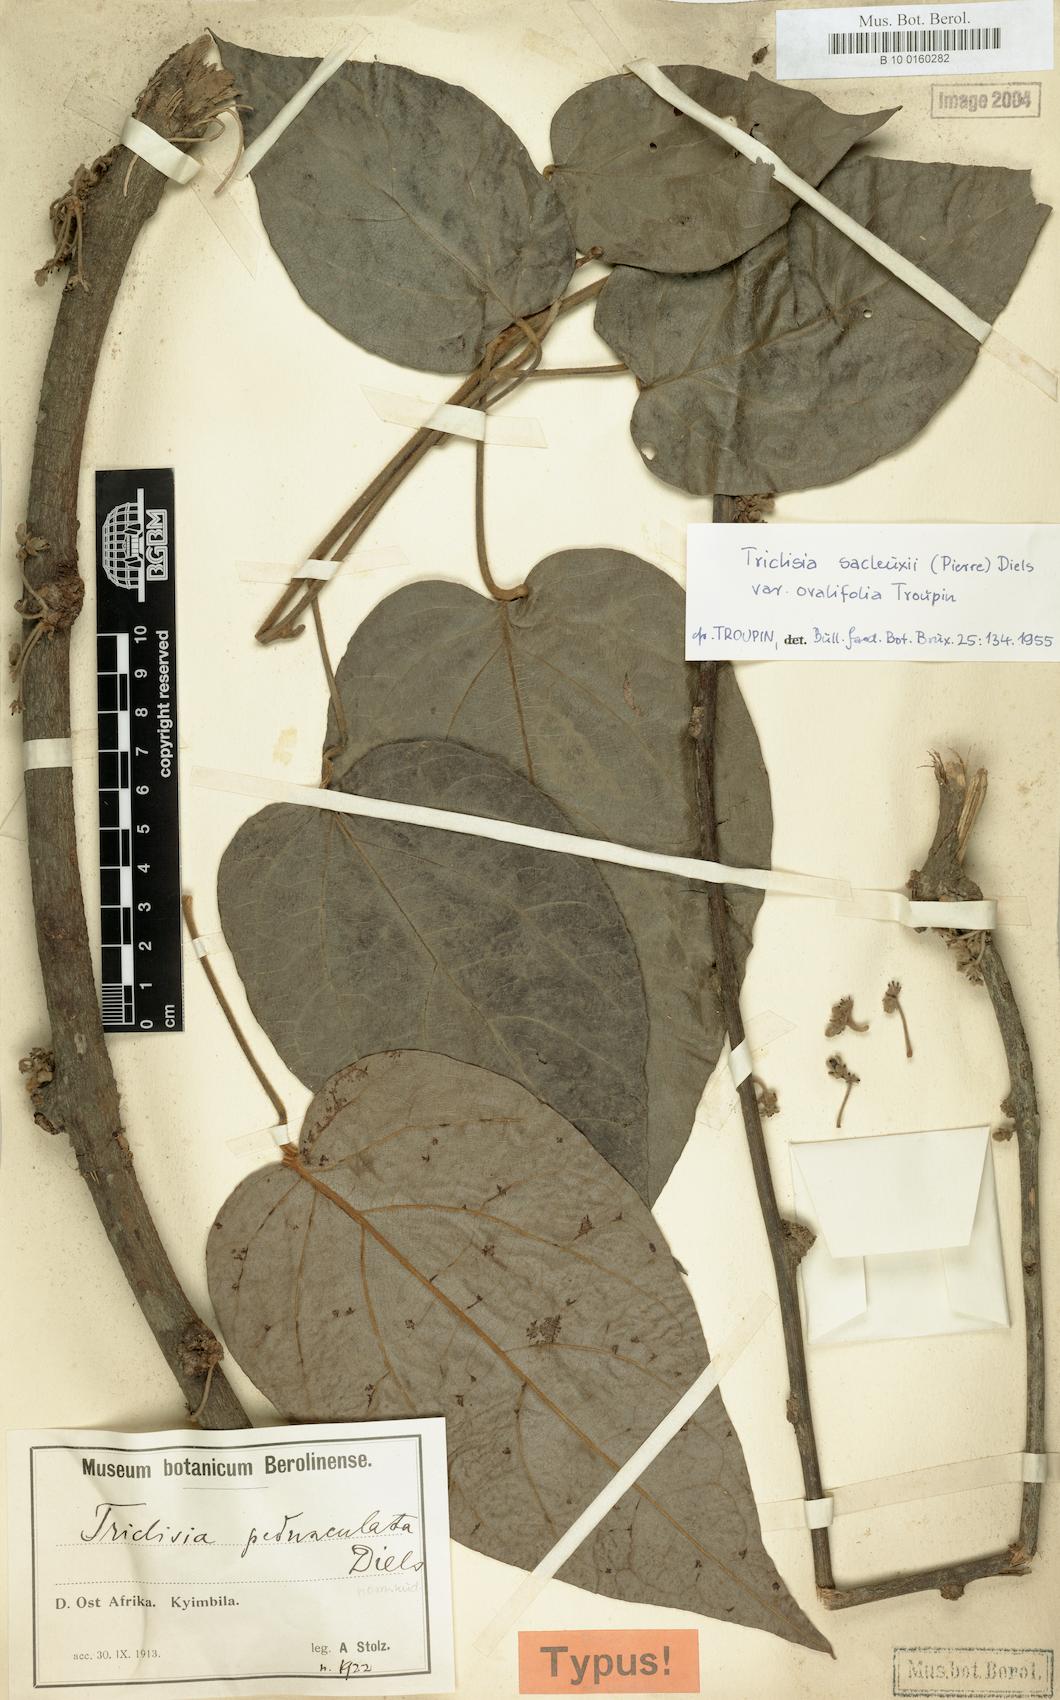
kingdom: Plantae
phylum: Tracheophyta
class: Magnoliopsida
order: Ranunculales
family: Menispermaceae
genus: Triclisia
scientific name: Triclisia sacleuxii
